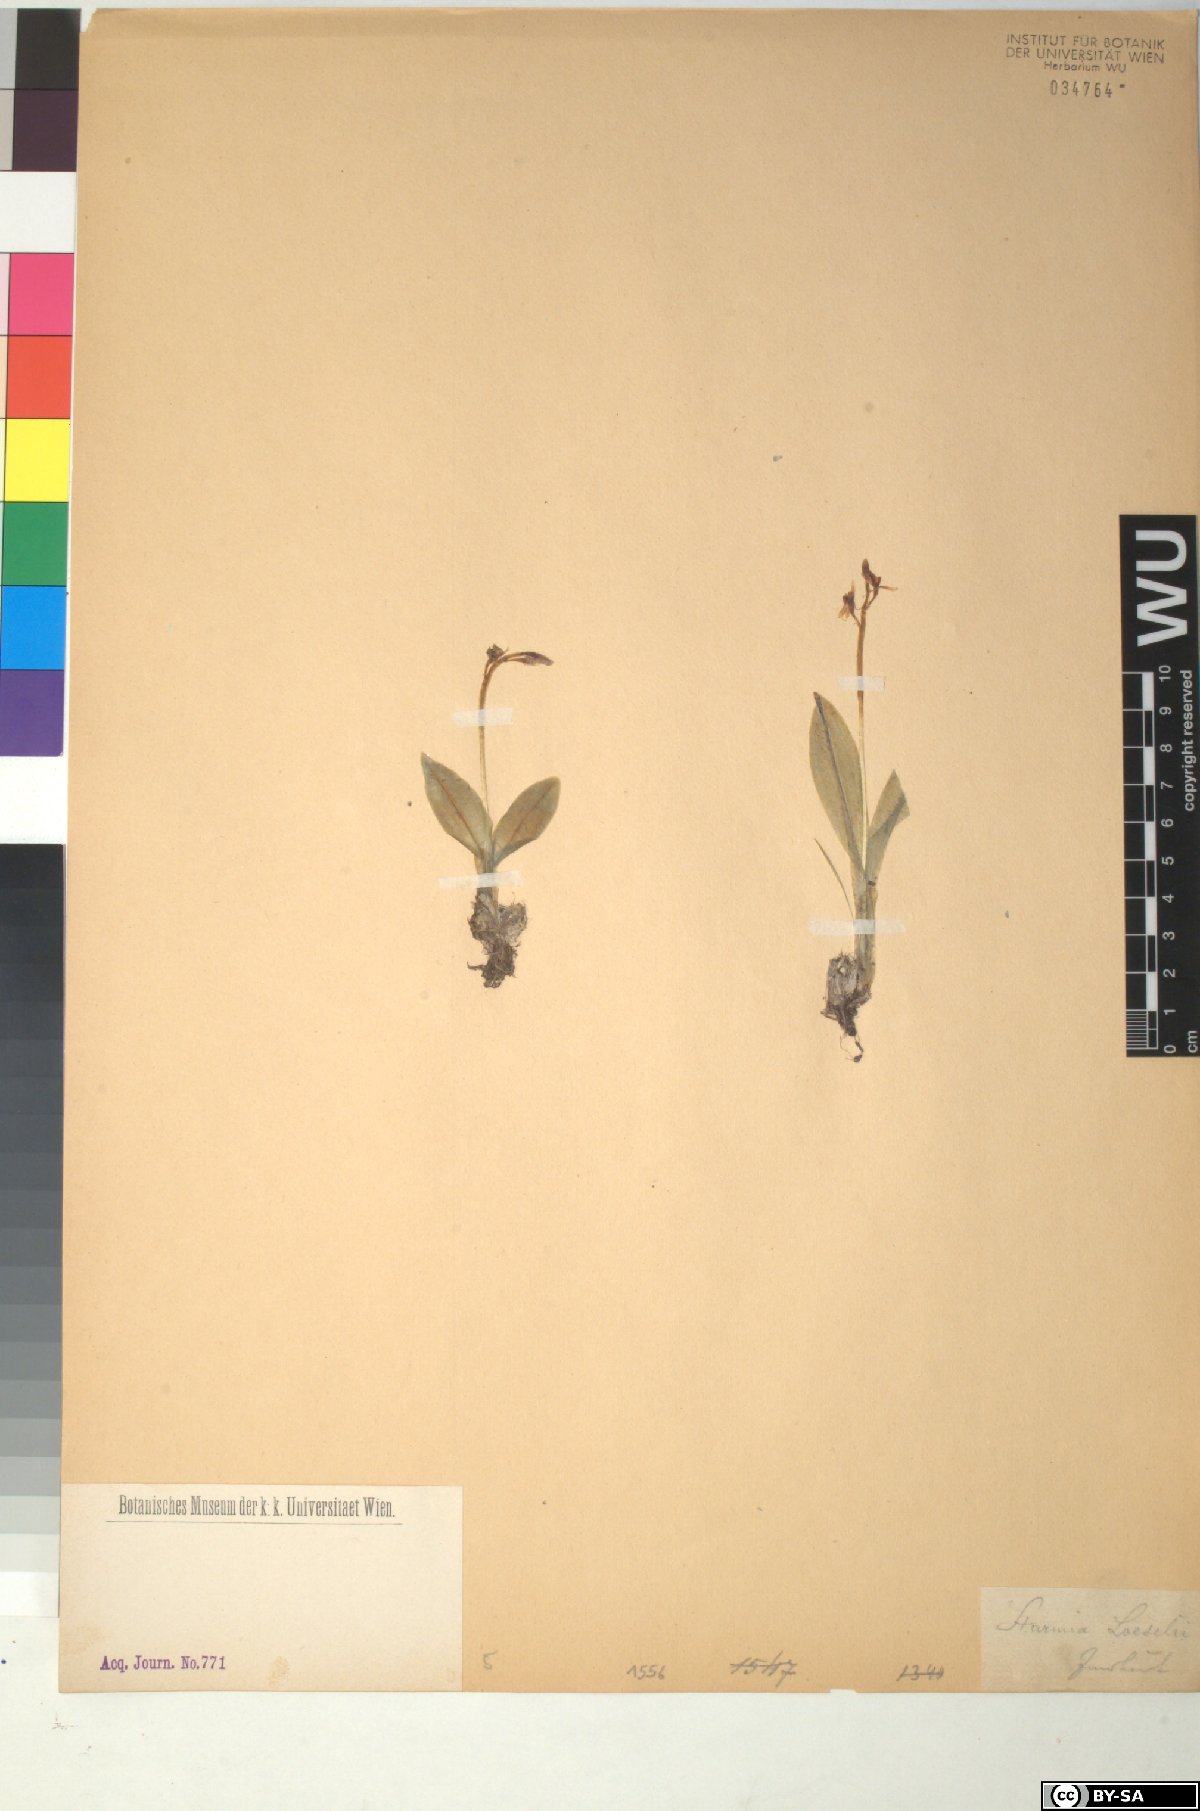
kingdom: Animalia
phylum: Arthropoda
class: Insecta
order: Coleoptera
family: Curculionidae
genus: Liparis
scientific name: Liparis loeselii
